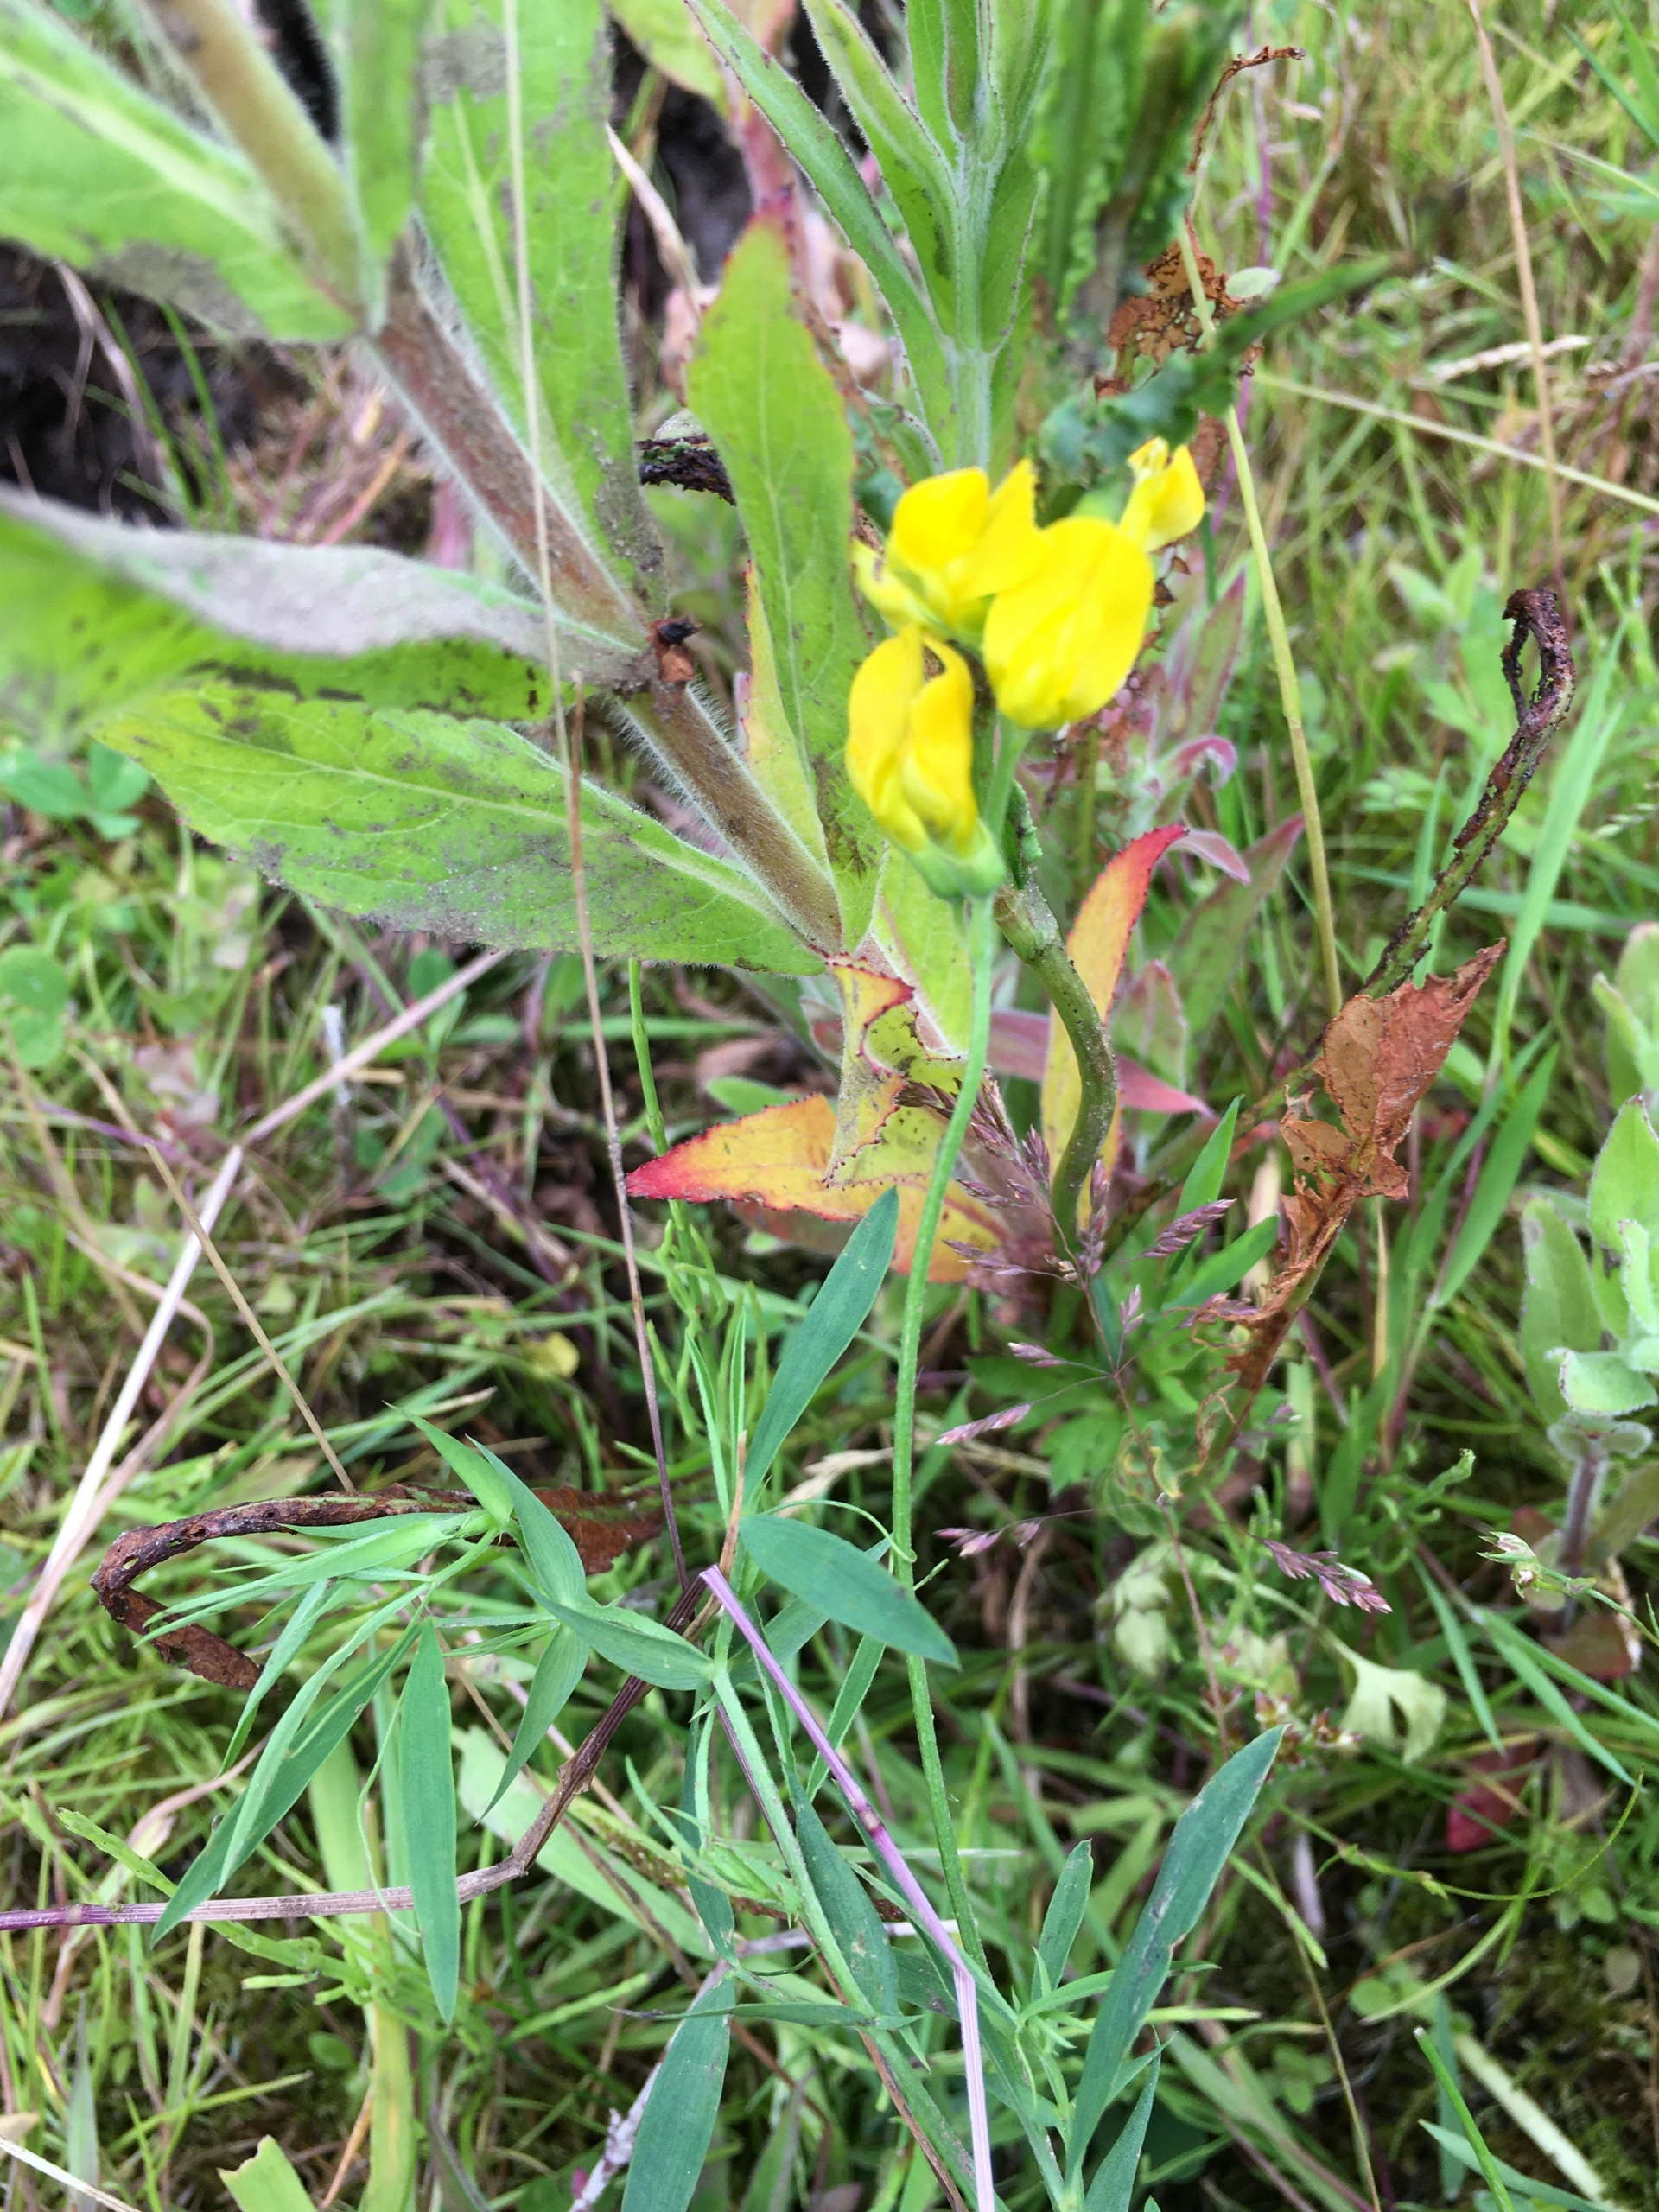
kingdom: Plantae
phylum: Tracheophyta
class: Magnoliopsida
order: Fabales
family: Fabaceae
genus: Lathyrus
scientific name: Lathyrus pratensis
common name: Gul fladbælg
